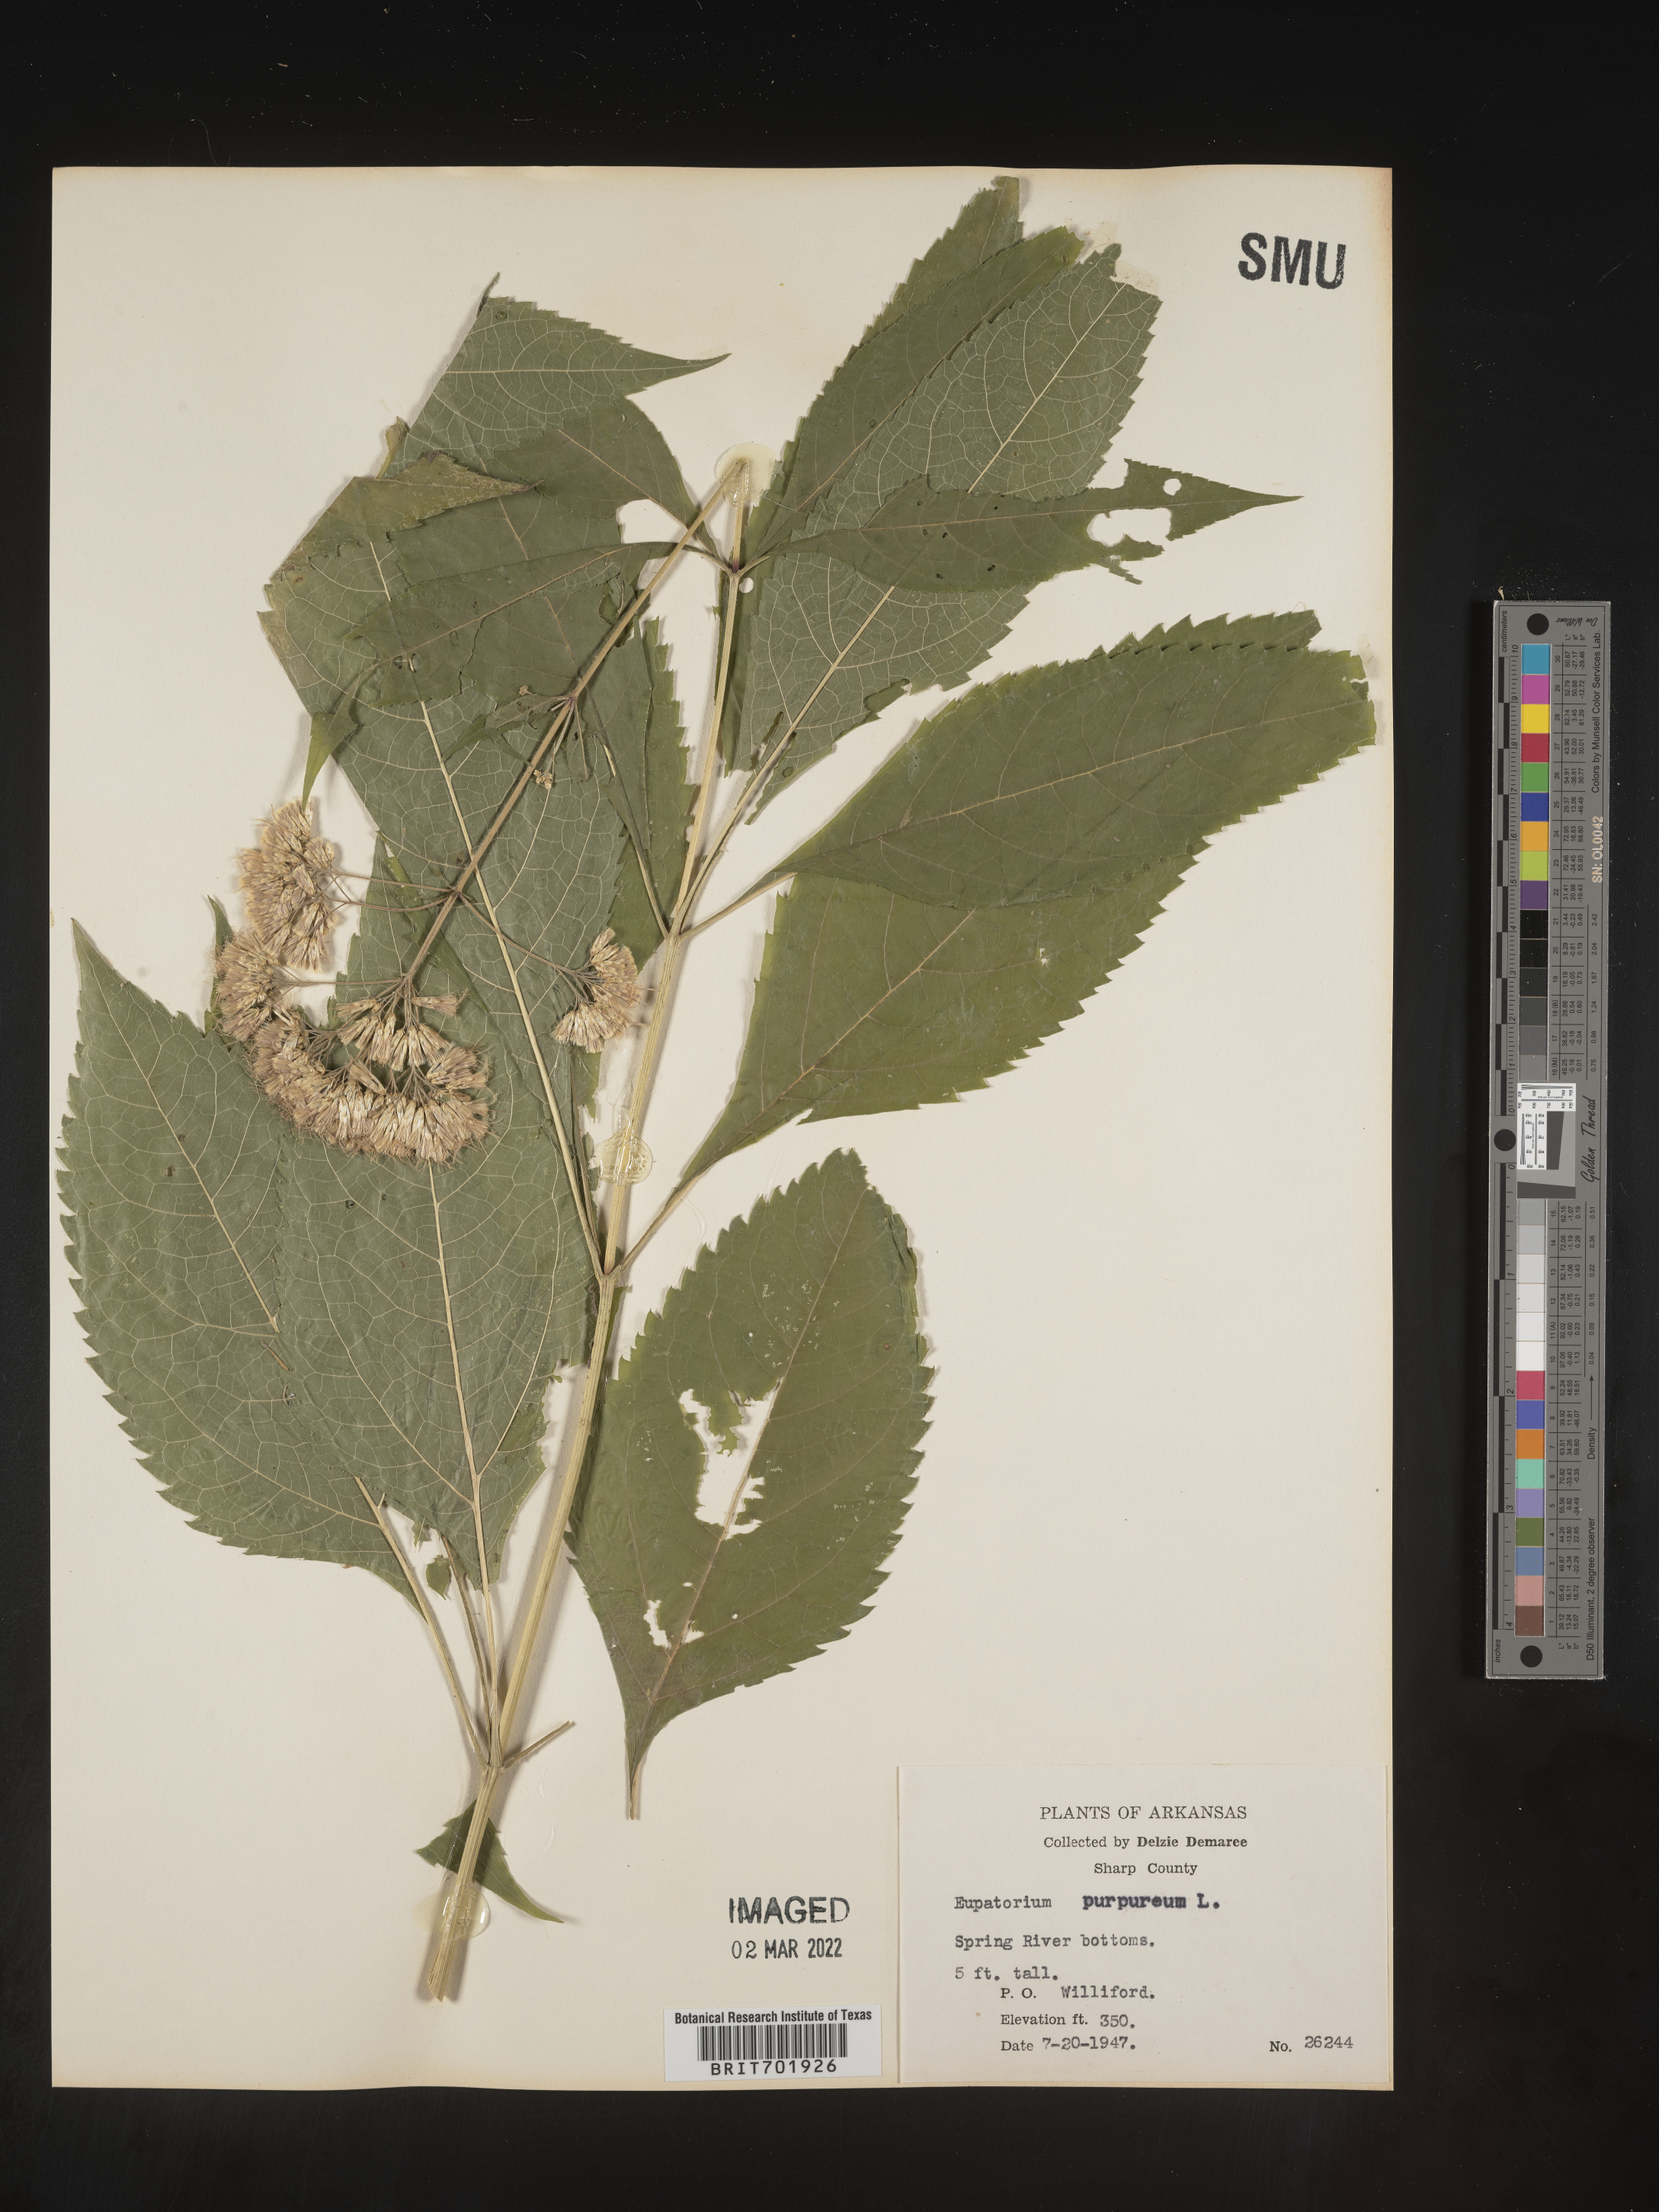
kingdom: Plantae
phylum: Tracheophyta
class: Magnoliopsida
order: Asterales
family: Asteraceae
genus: Eupatorium
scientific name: Eupatorium quaternum
